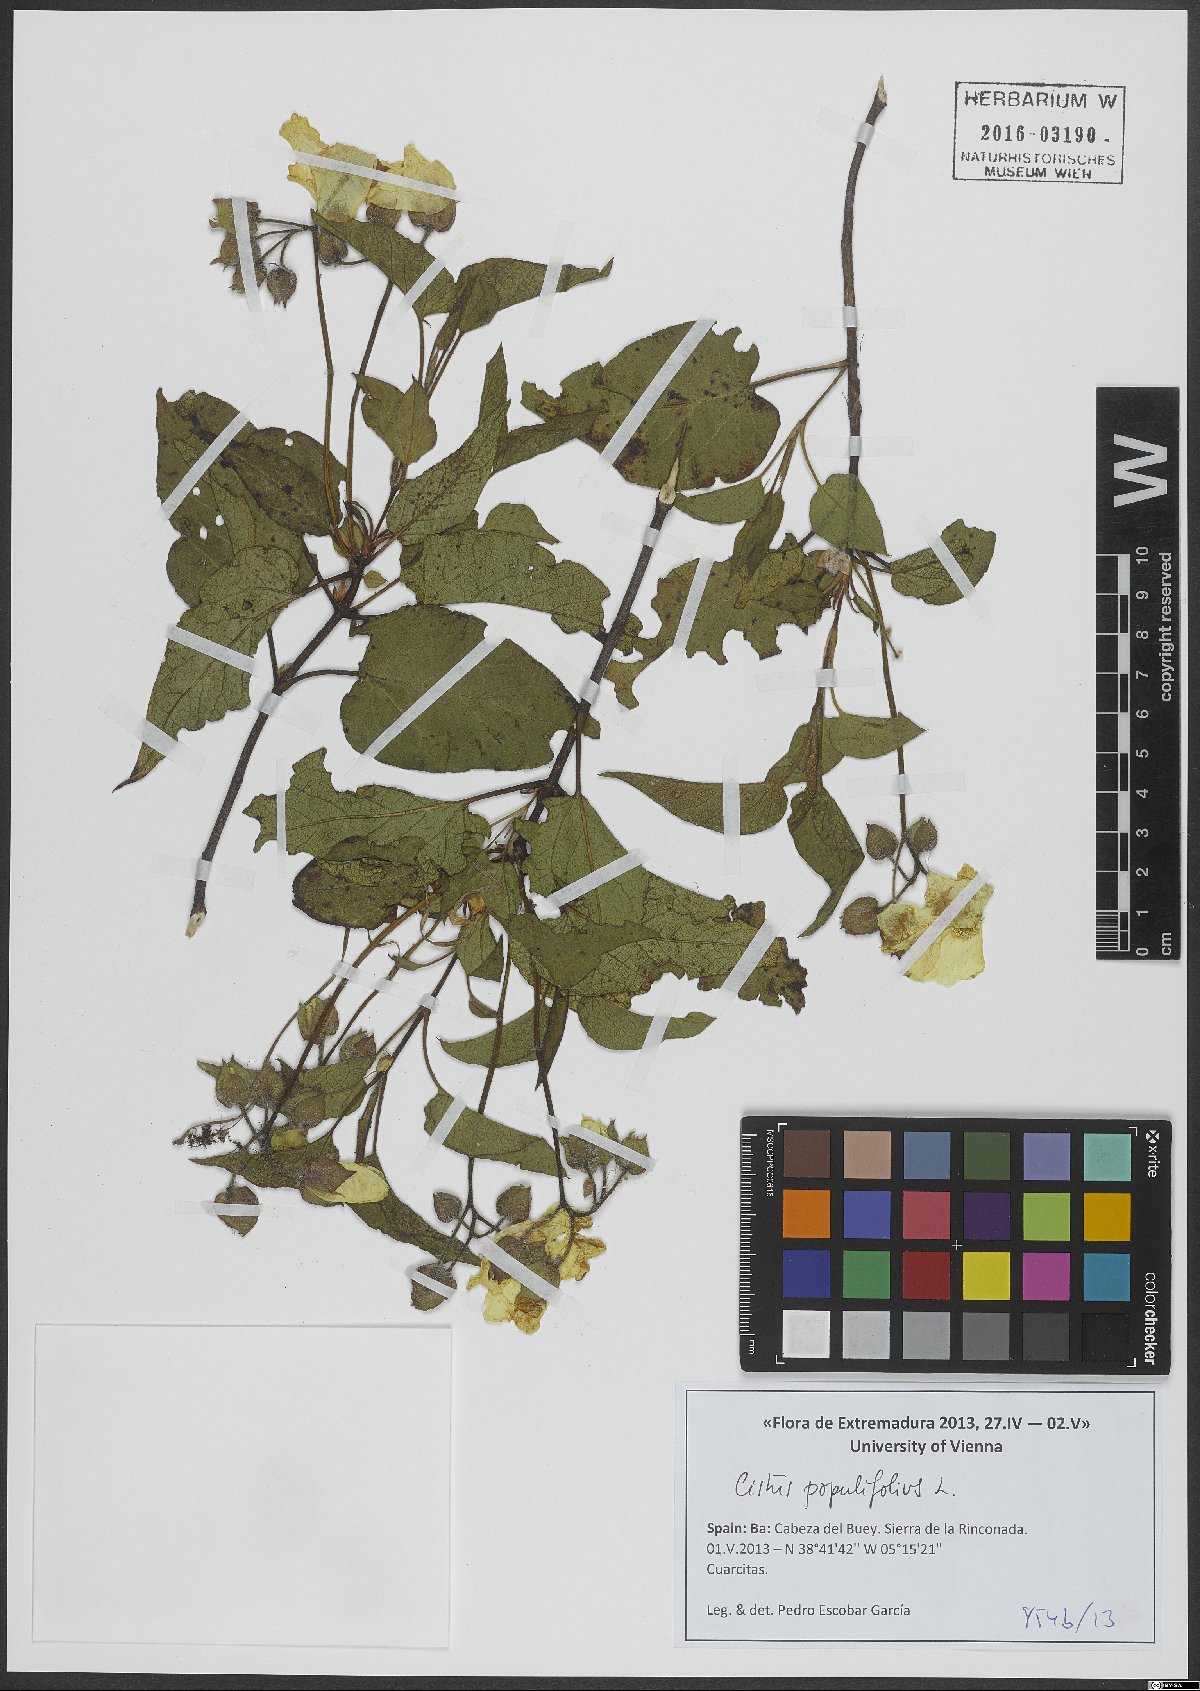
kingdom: Plantae
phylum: Tracheophyta
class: Magnoliopsida
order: Malvales
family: Cistaceae
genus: Cistus
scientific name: Cistus populifolius
